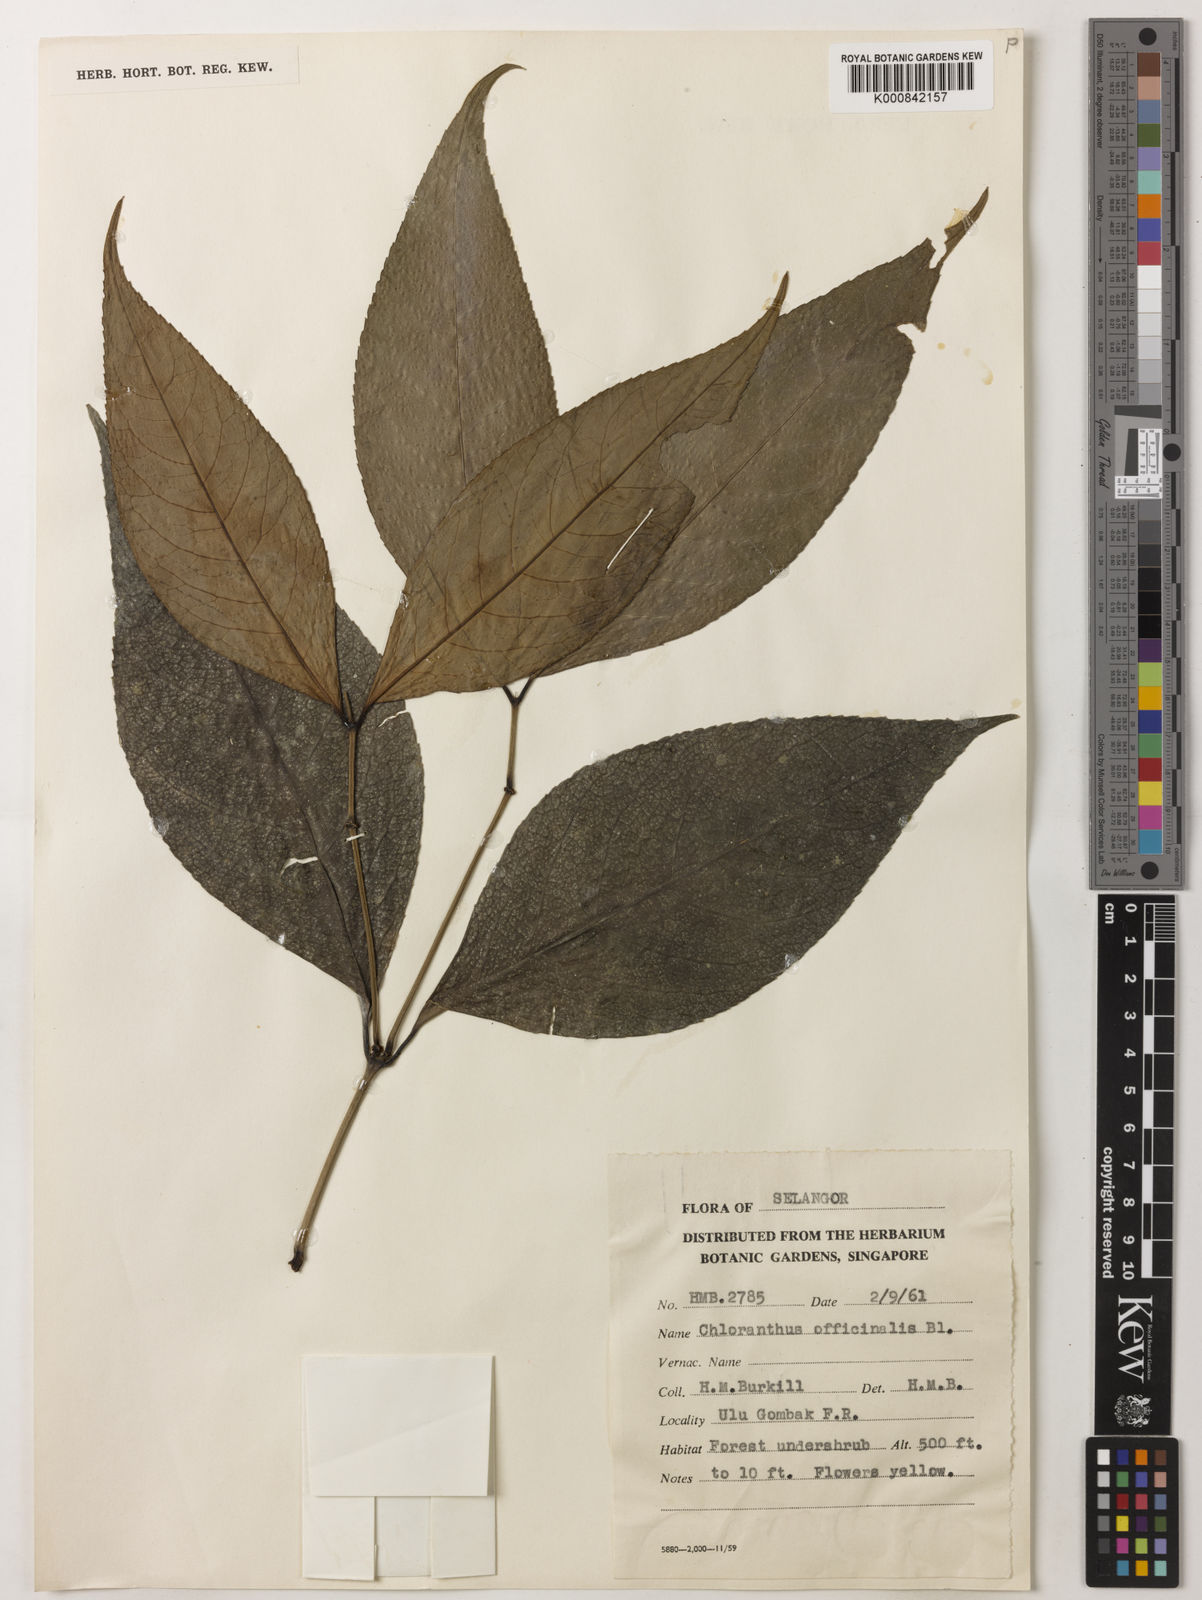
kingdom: Plantae
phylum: Tracheophyta
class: Magnoliopsida
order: Chloranthales
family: Chloranthaceae
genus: Chloranthus
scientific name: Chloranthus
